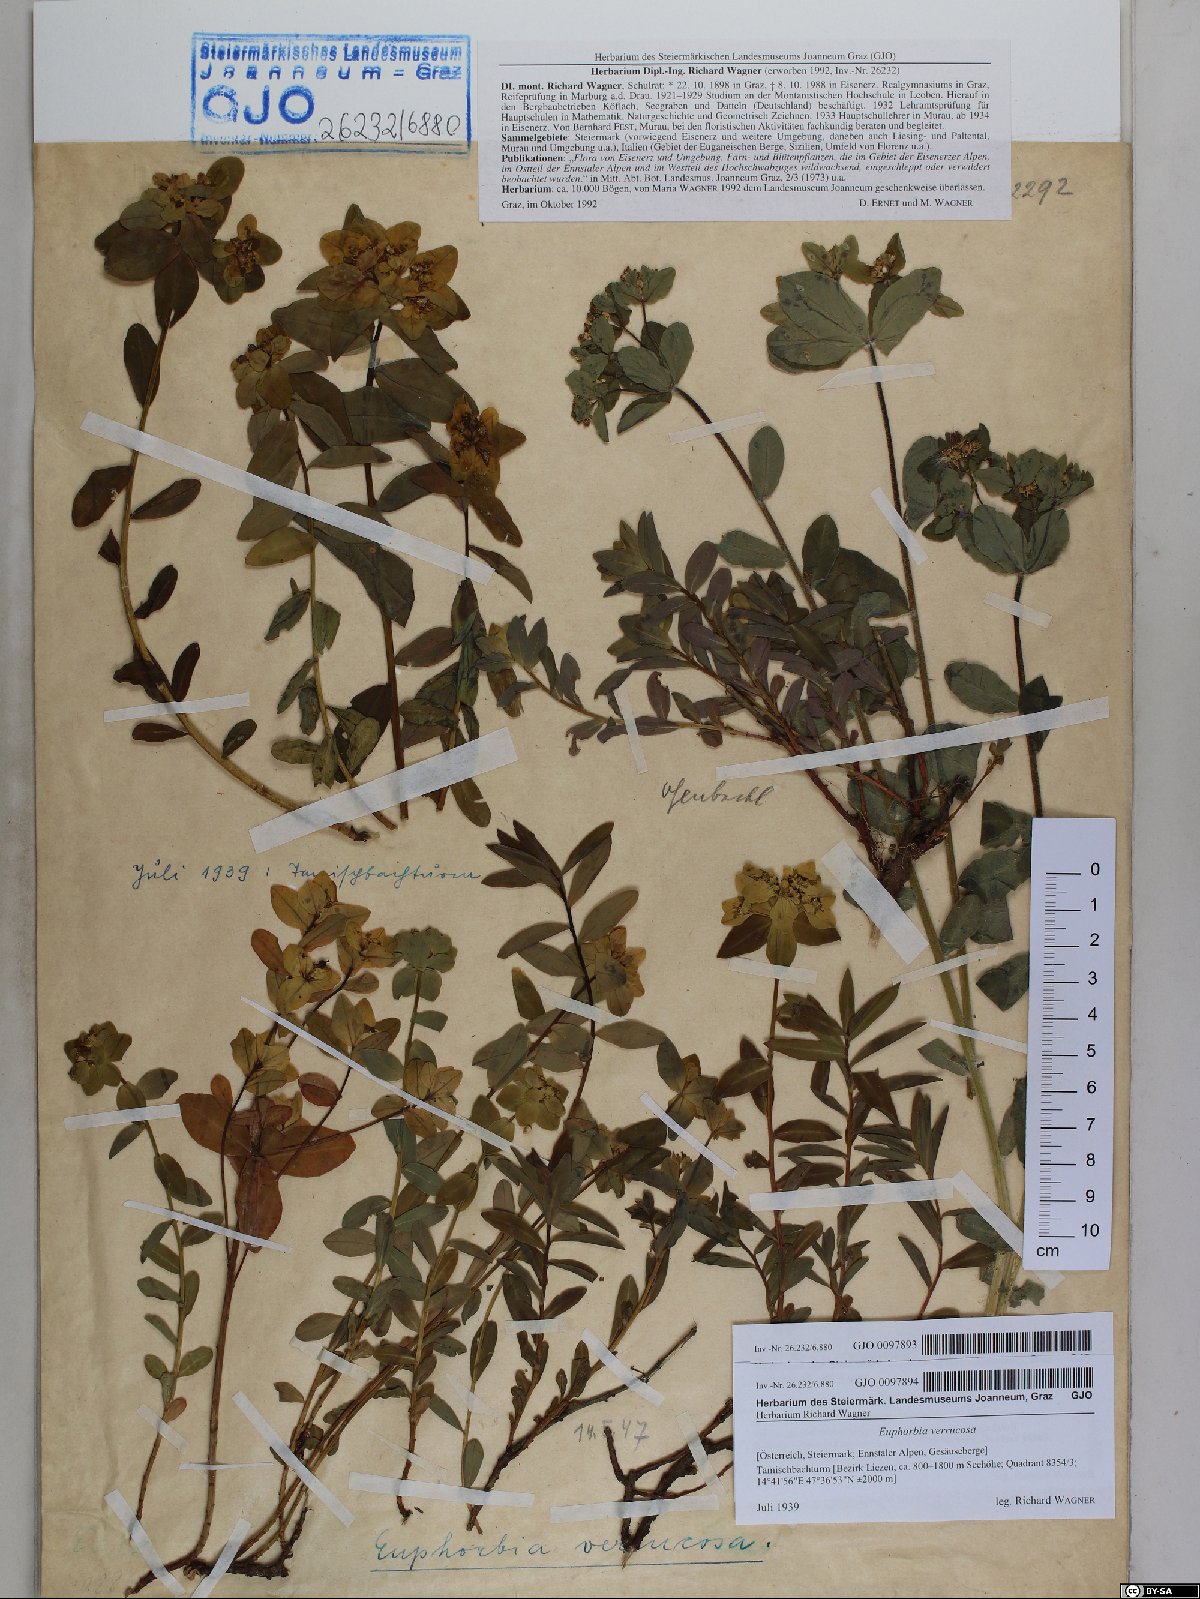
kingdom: Plantae
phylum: Tracheophyta
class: Magnoliopsida
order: Malpighiales
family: Euphorbiaceae
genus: Euphorbia
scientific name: Euphorbia verrucosa
